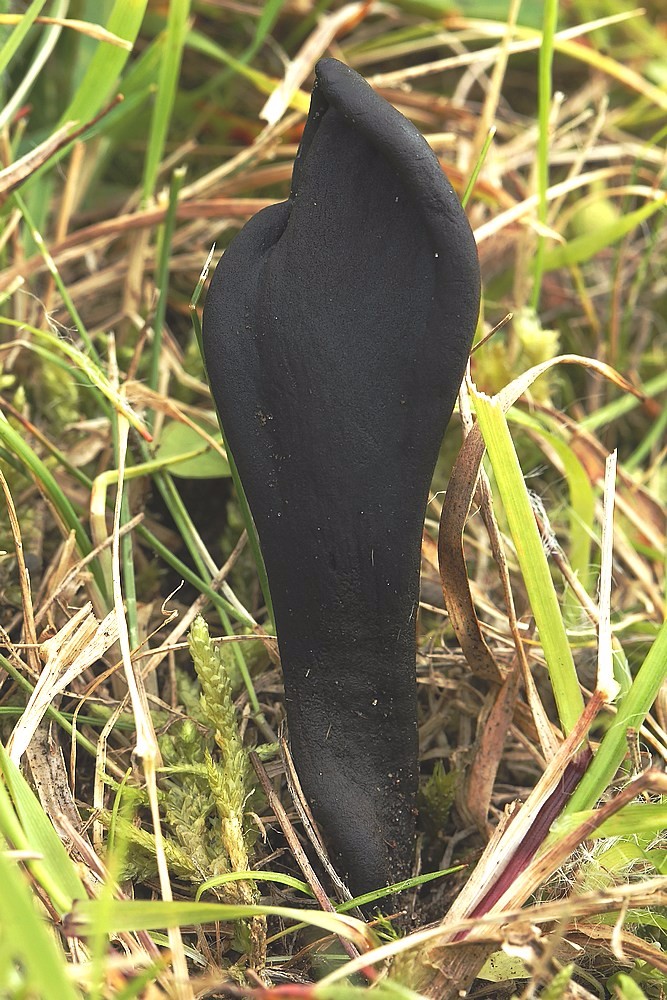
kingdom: Fungi
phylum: Ascomycota
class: Geoglossomycetes
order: Geoglossales
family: Geoglossaceae
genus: Geoglossum
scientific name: Geoglossum cookeianum
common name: bred jordtunge
